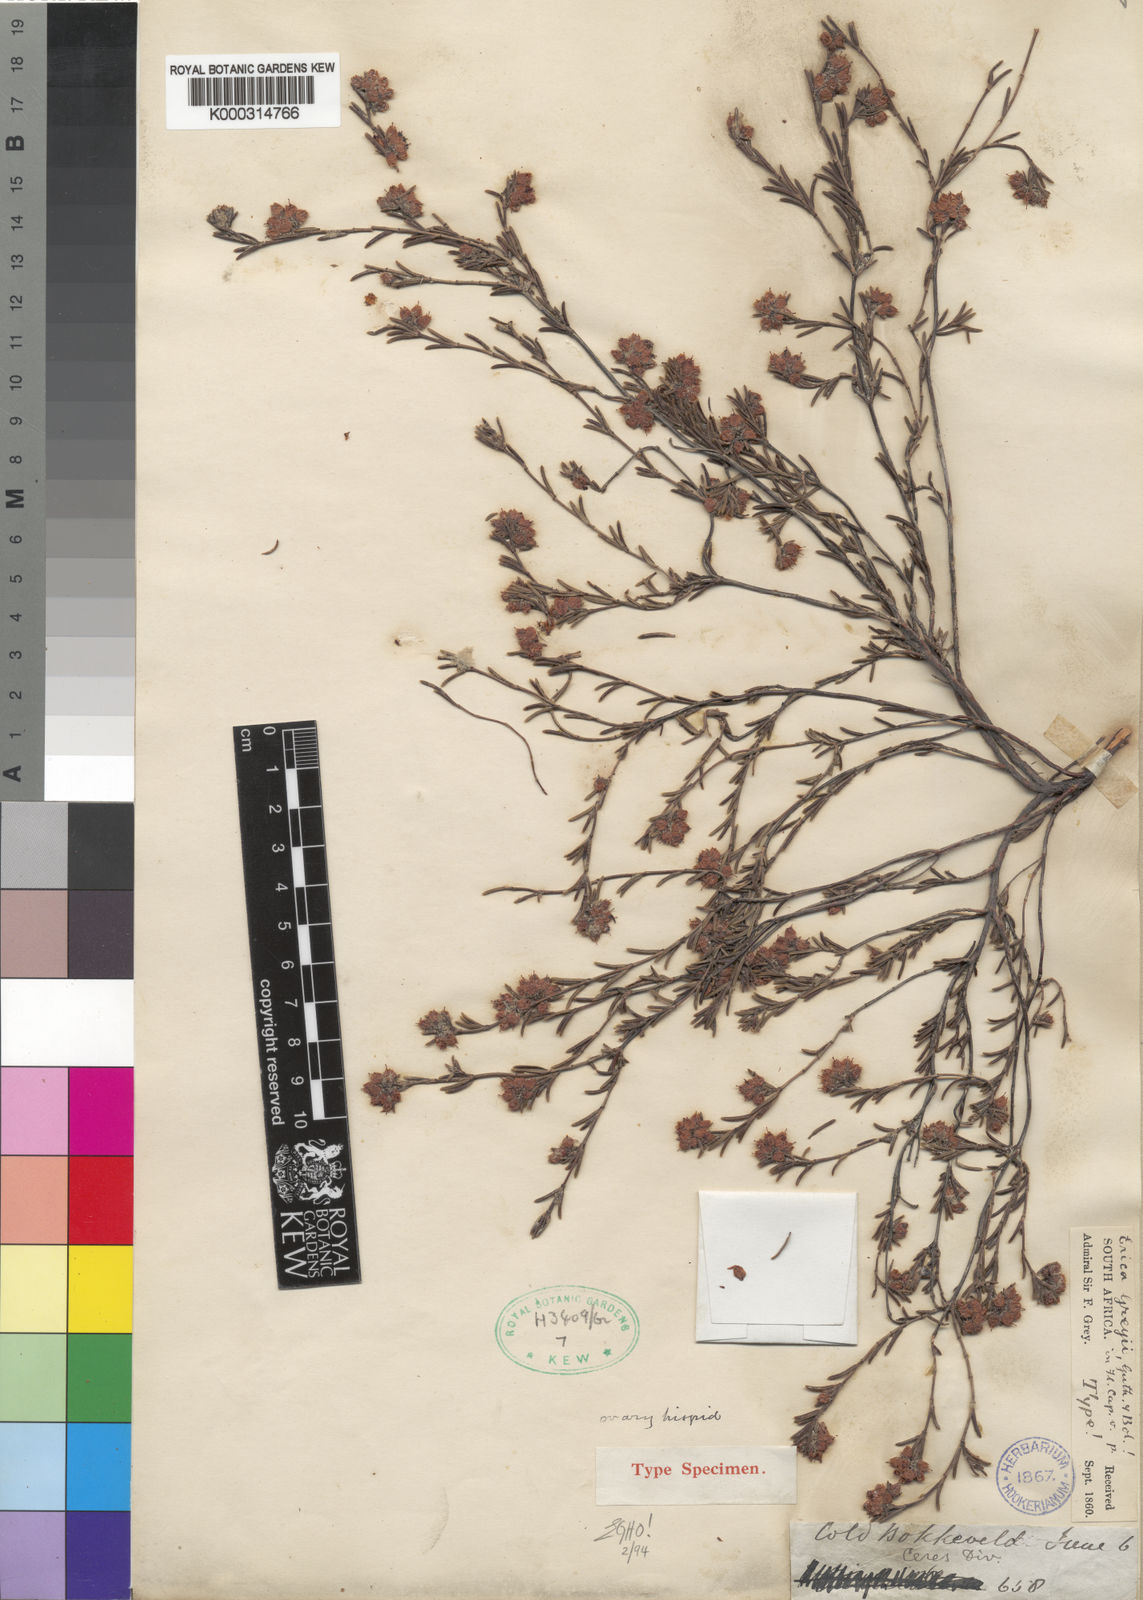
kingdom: Plantae
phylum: Tracheophyta
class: Magnoliopsida
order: Ericales
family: Ericaceae
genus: Erica
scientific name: Erica greyi
